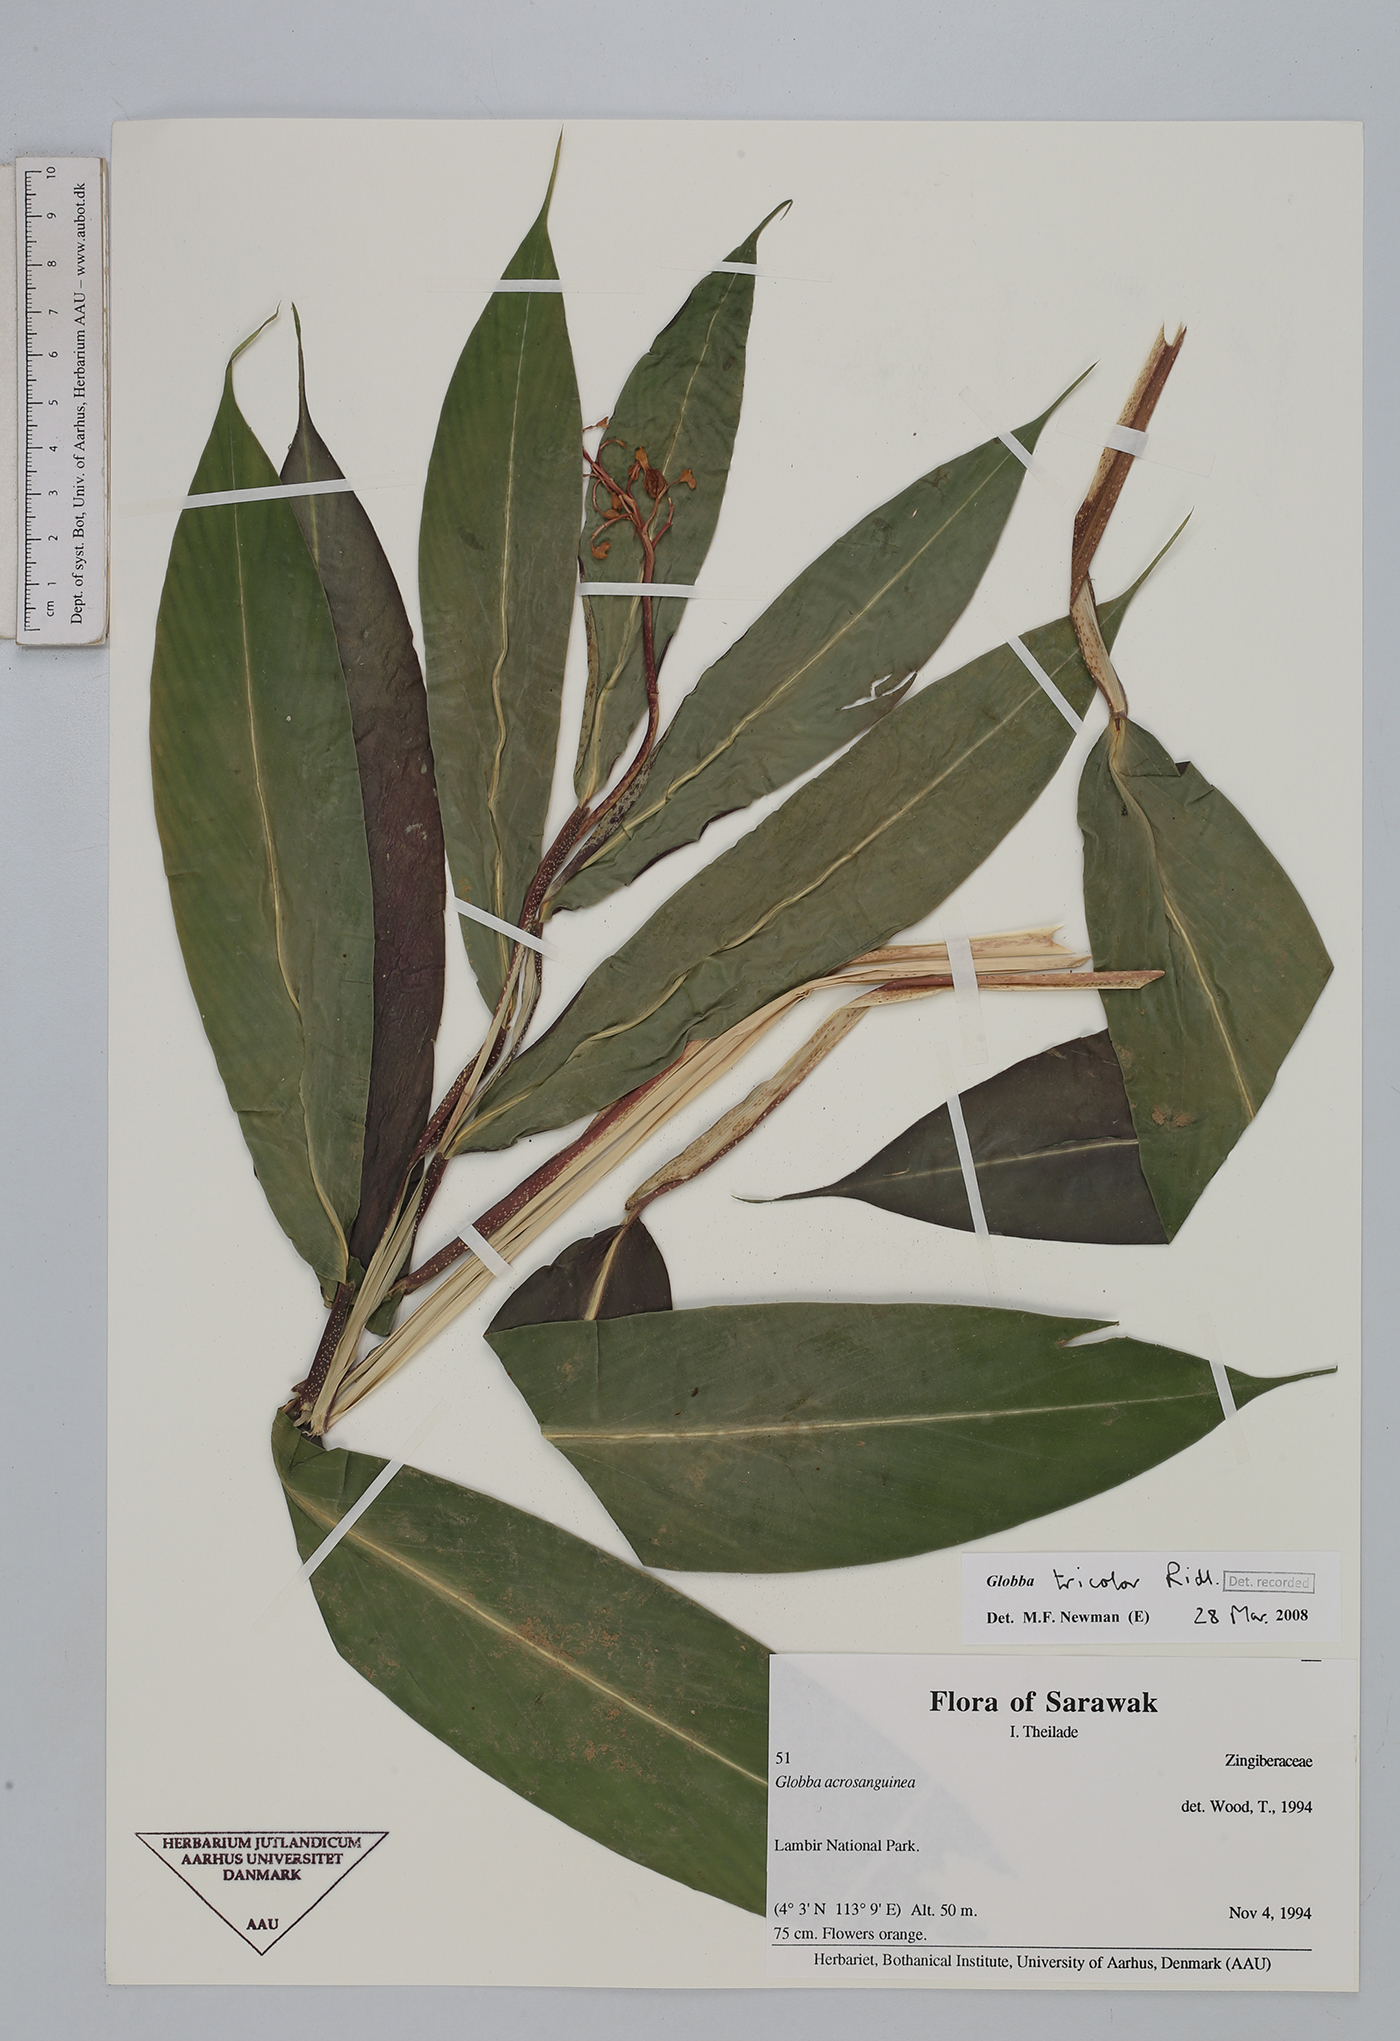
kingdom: Plantae
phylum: Tracheophyta
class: Liliopsida
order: Zingiberales
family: Zingiberaceae
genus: Globba
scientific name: Globba tricolor
